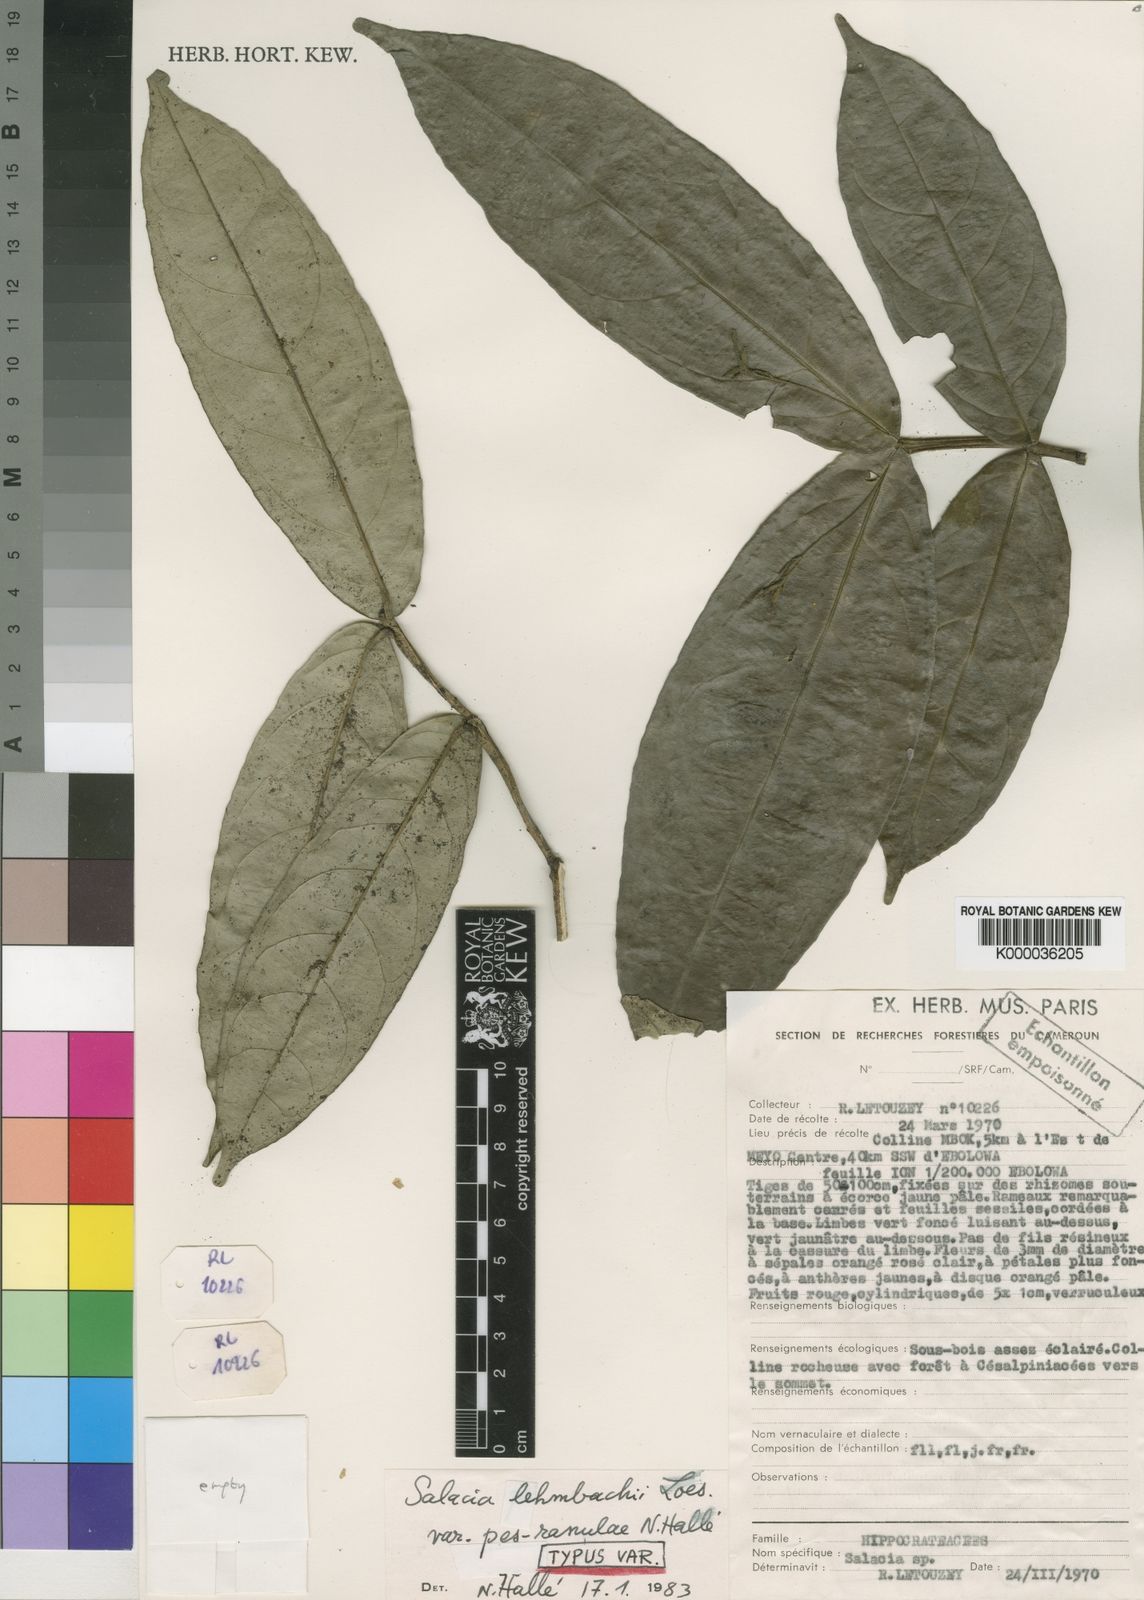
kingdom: Plantae
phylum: Tracheophyta
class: Magnoliopsida
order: Celastrales
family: Celastraceae
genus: Salacia
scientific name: Salacia lehmbachii
